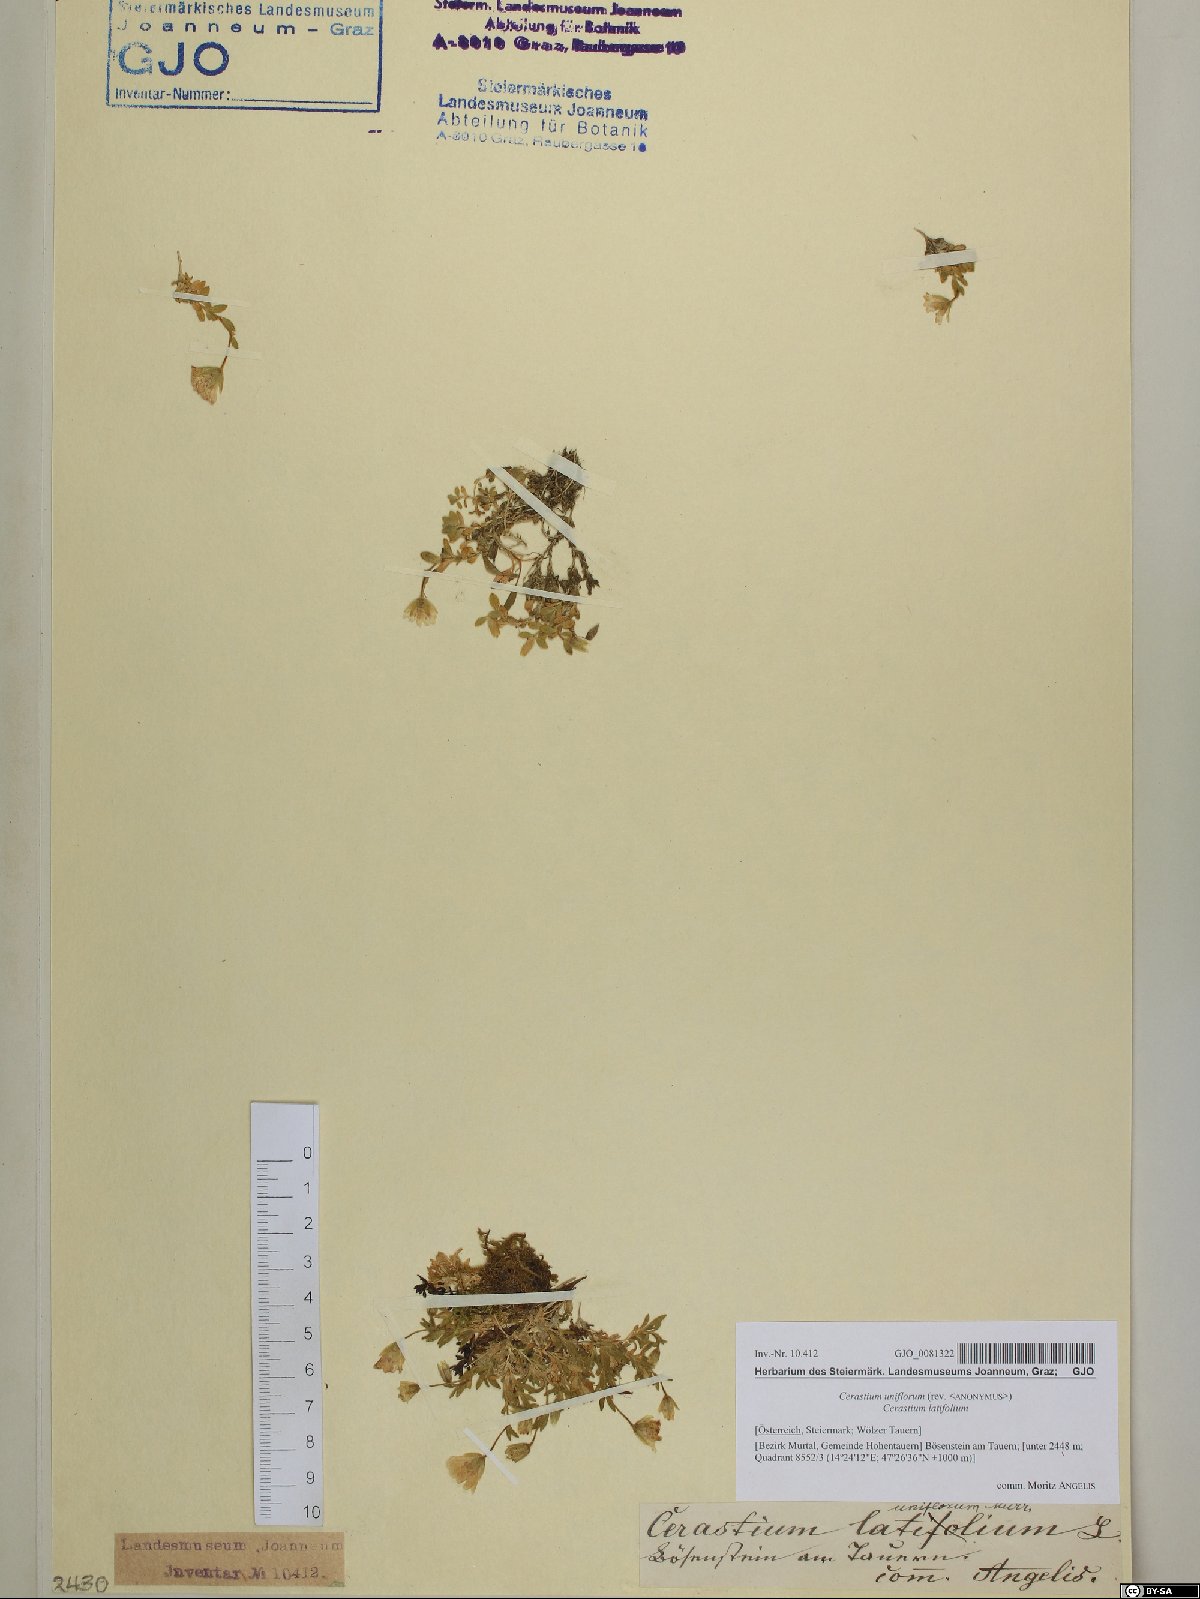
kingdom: Plantae
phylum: Tracheophyta
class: Magnoliopsida
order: Caryophyllales
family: Caryophyllaceae
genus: Cerastium
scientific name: Cerastium uniflorum
